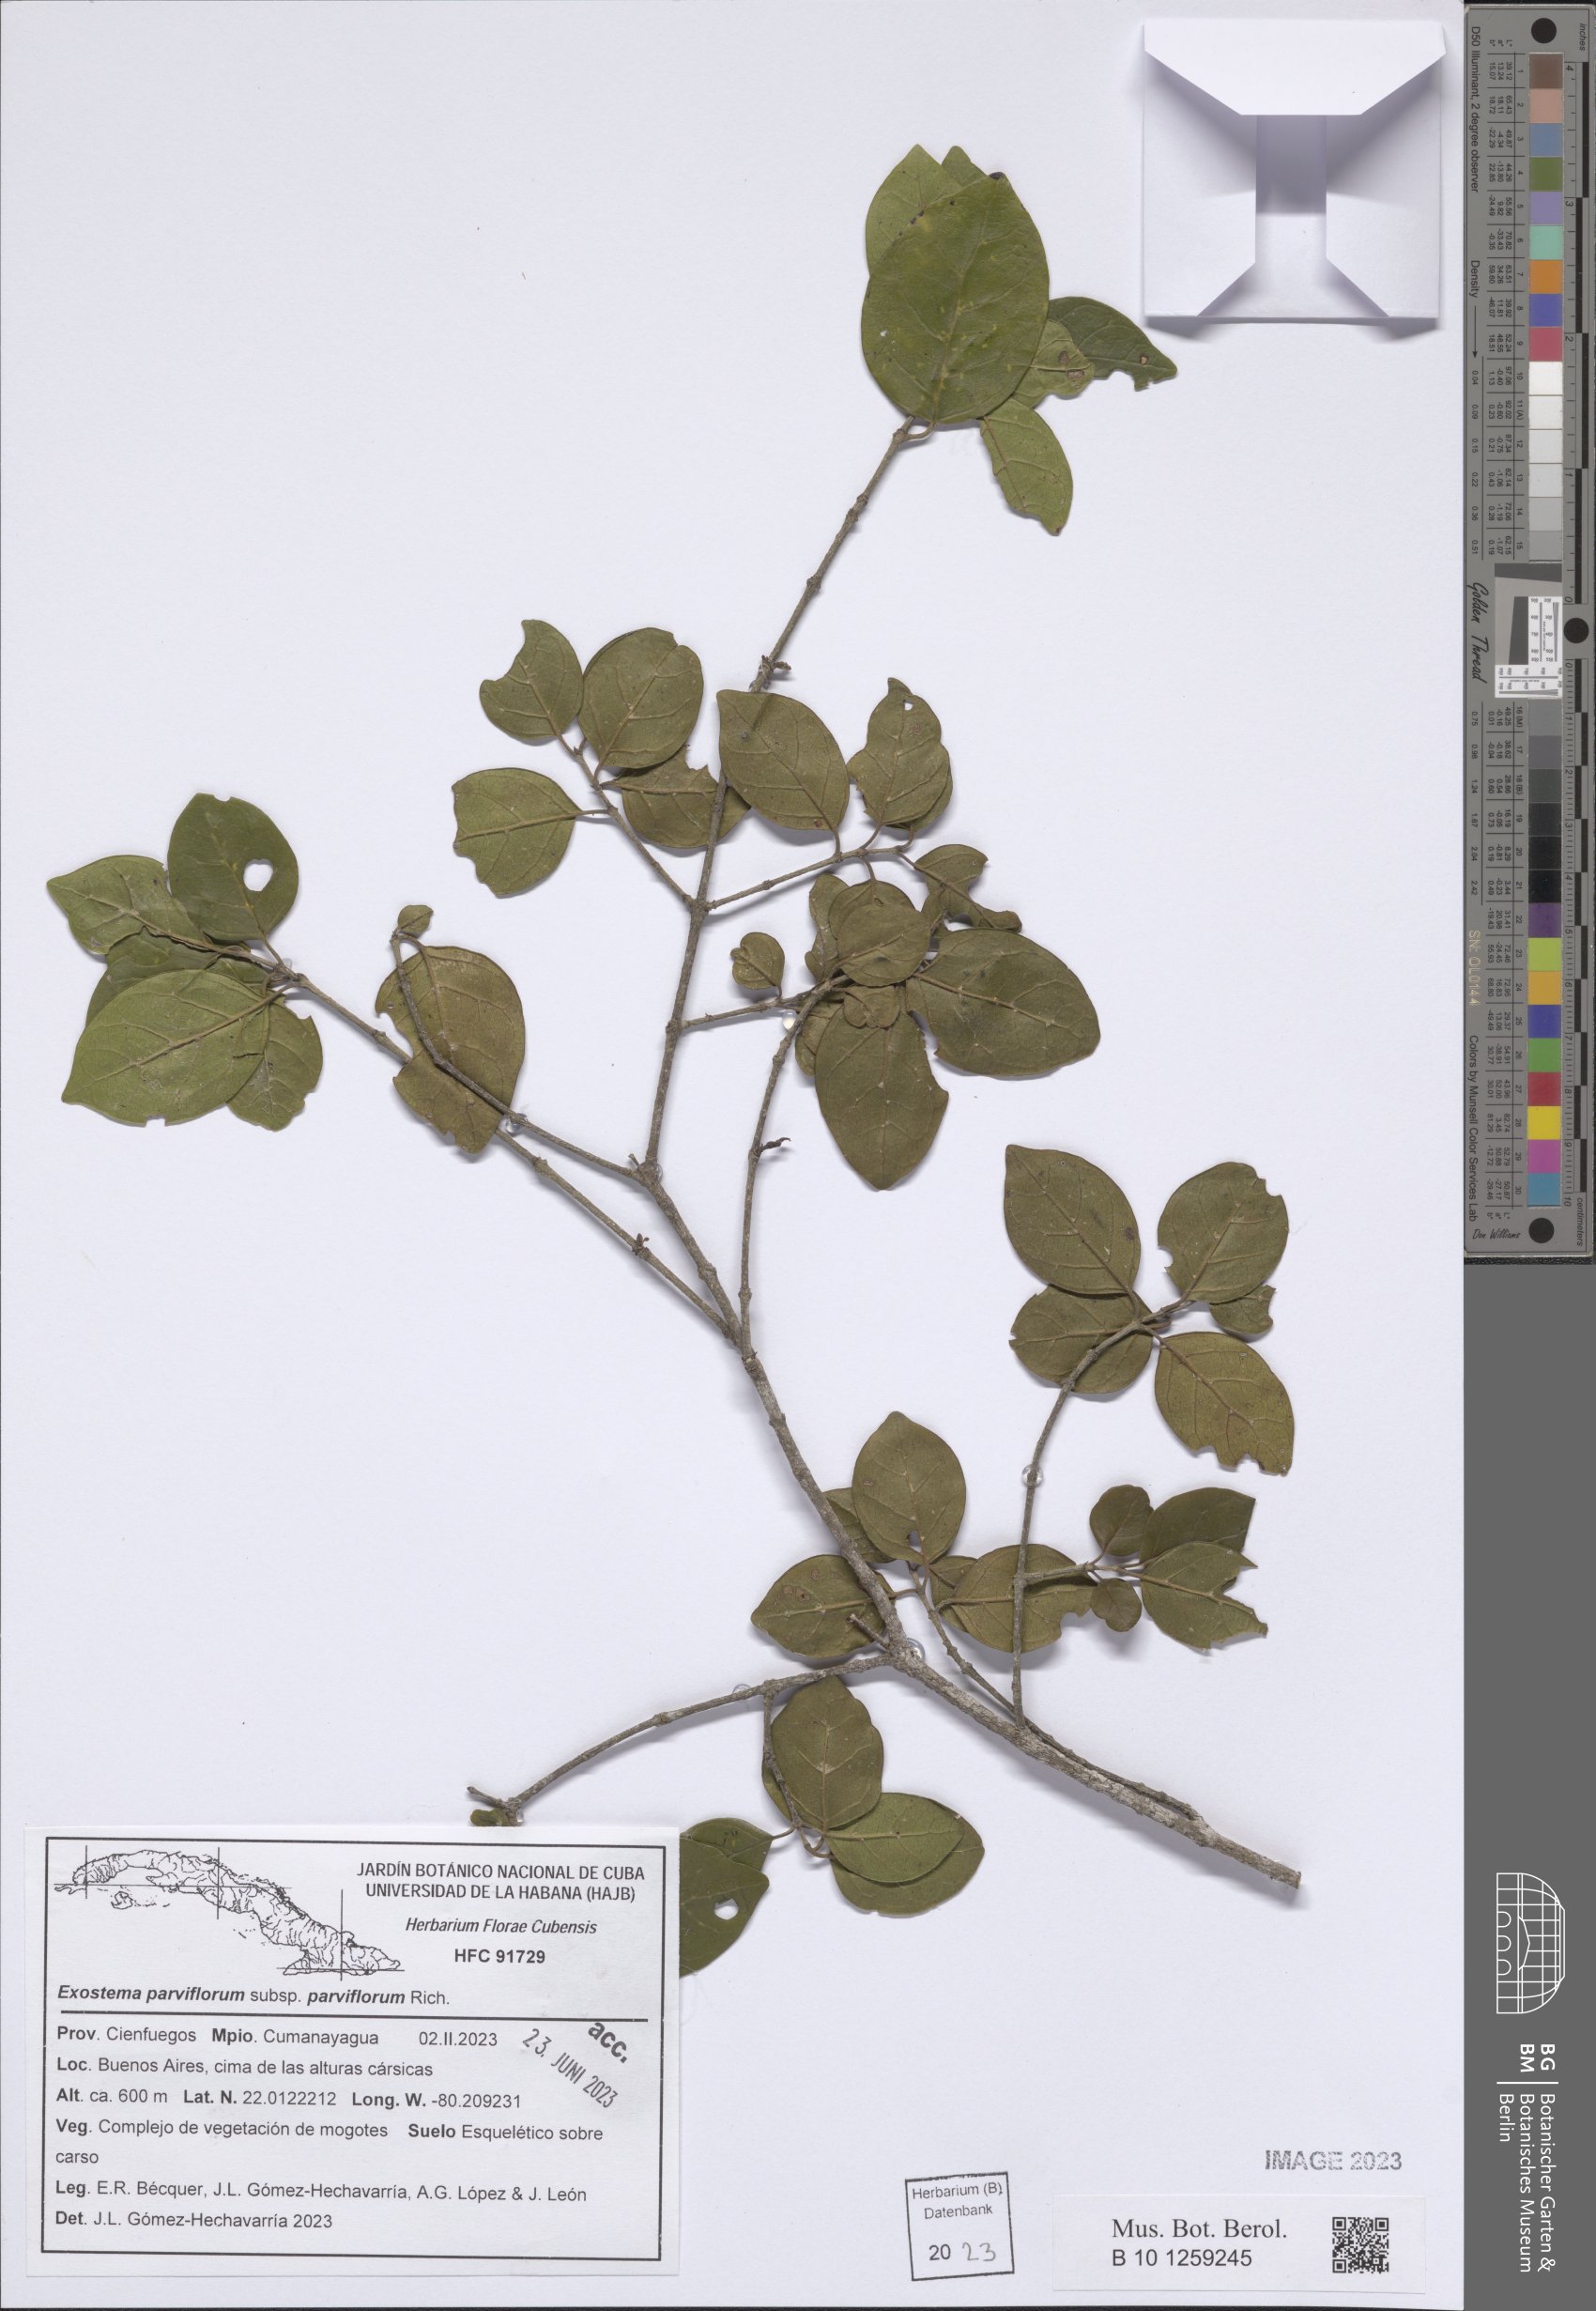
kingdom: Plantae
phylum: Tracheophyta
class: Magnoliopsida
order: Gentianales
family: Rubiaceae
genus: Exostema
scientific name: Exostema parviflorum
